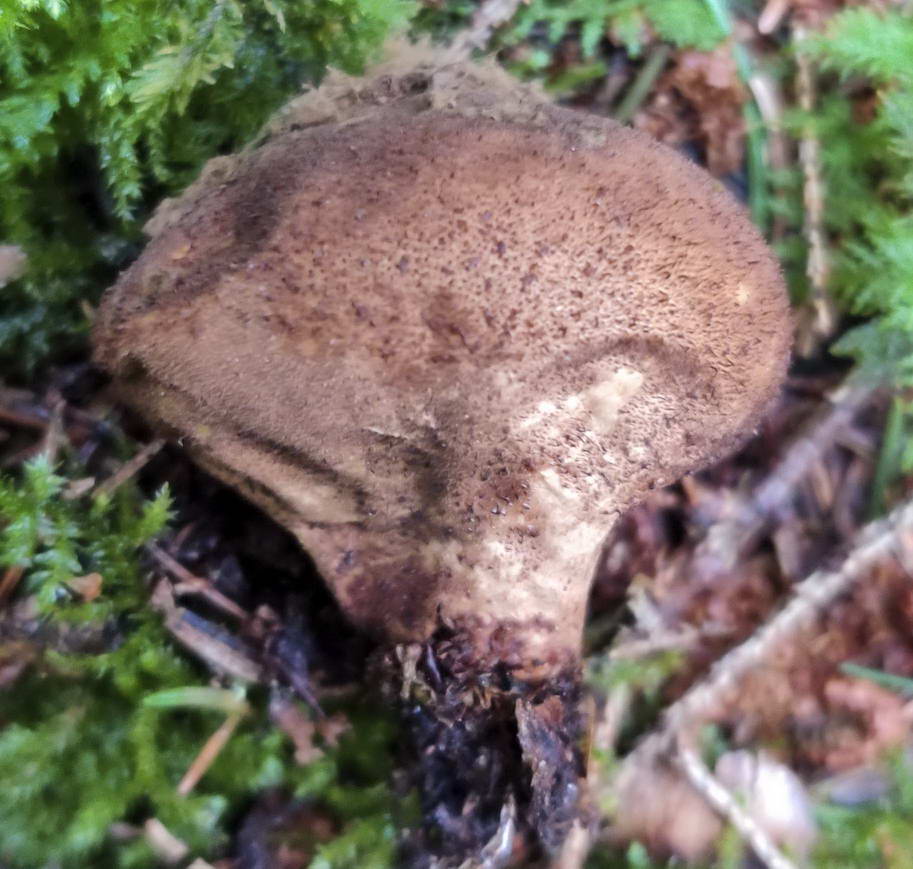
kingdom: Fungi
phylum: Basidiomycota
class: Agaricomycetes
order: Agaricales
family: Lycoperdaceae
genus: Lycoperdon
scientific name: Lycoperdon molle
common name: skov-støvbold
